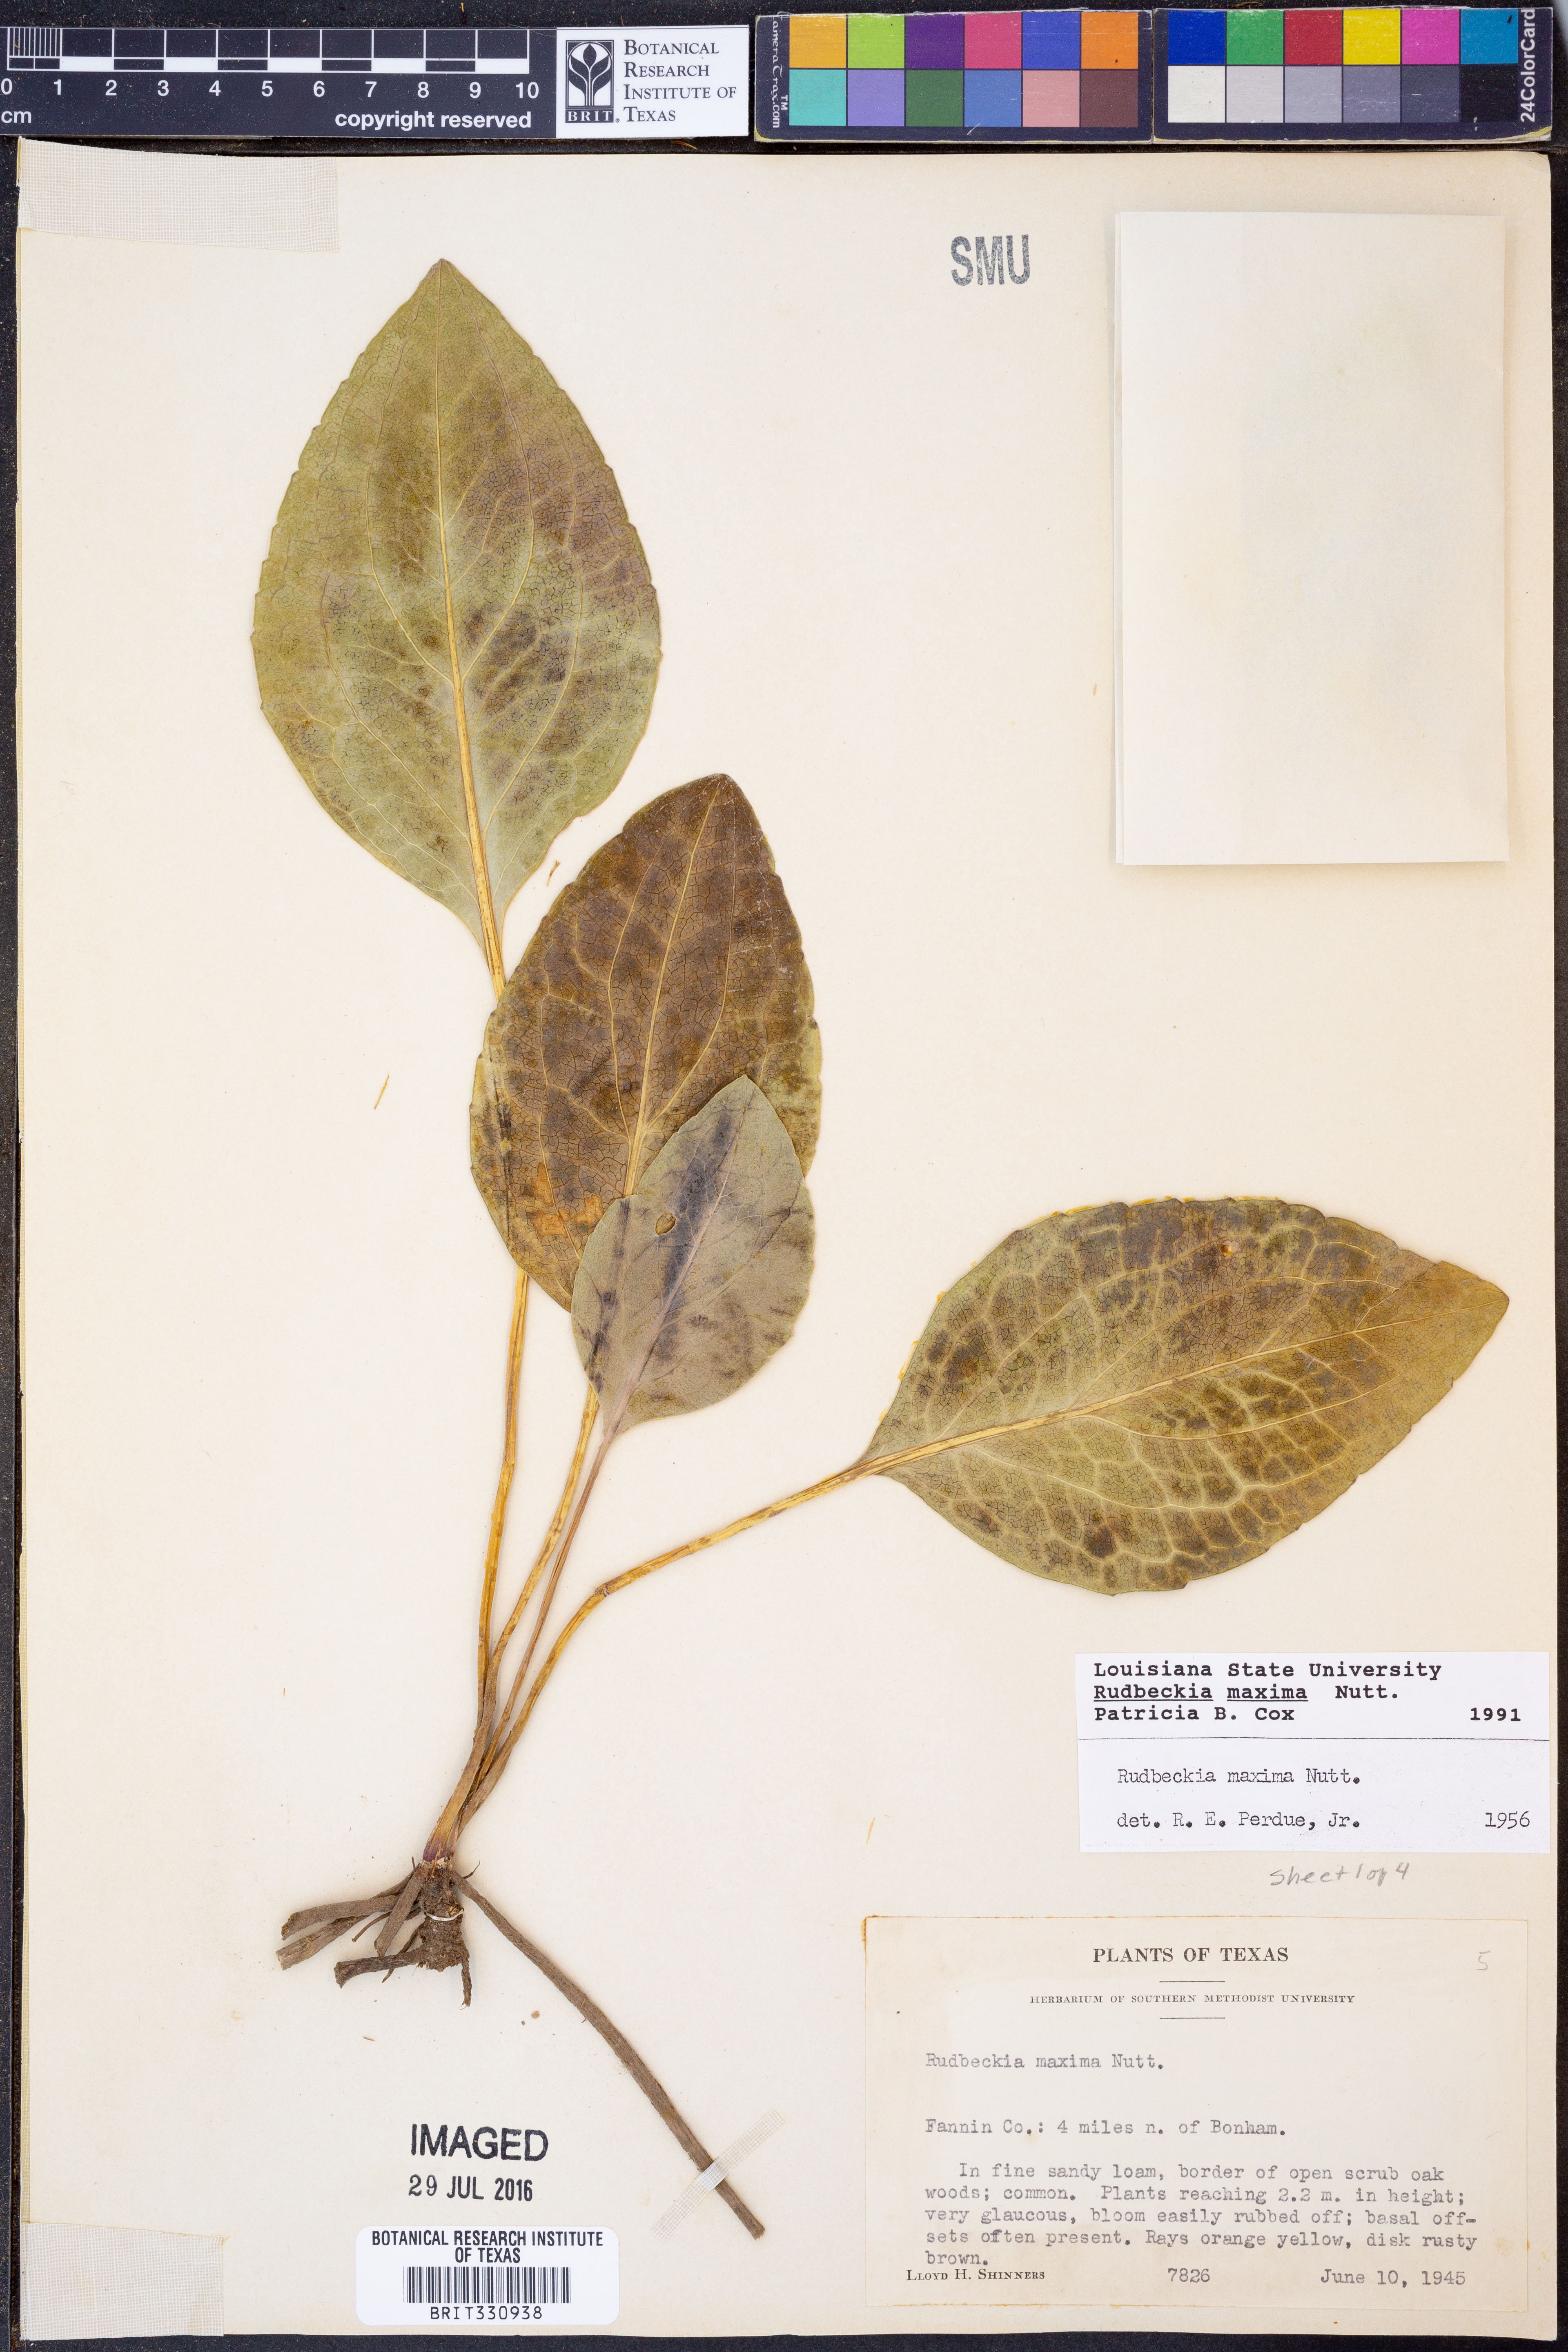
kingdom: Plantae
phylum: Tracheophyta
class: Magnoliopsida
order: Asterales
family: Asteraceae
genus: Rudbeckia
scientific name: Rudbeckia maxima
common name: Cabbage coneflower
